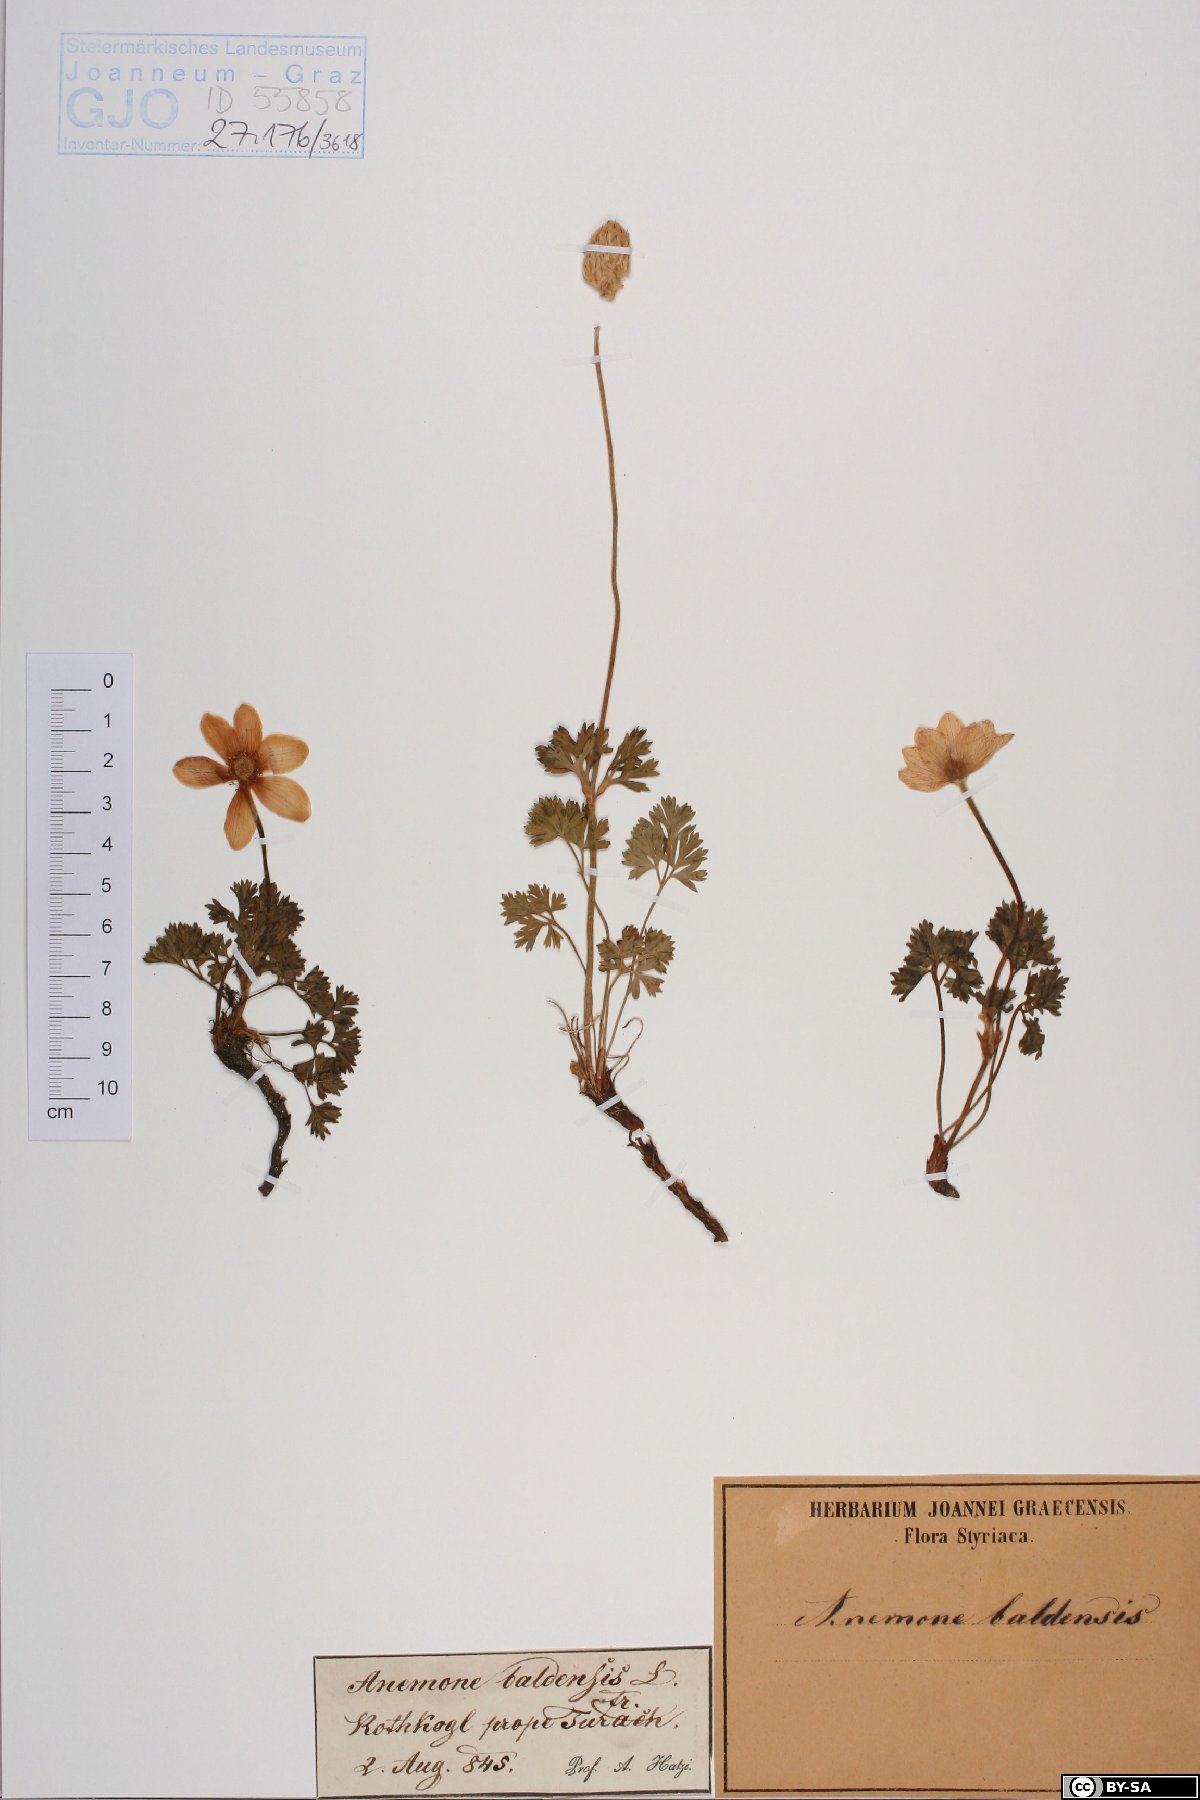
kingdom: Plantae
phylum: Tracheophyta
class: Magnoliopsida
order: Ranunculales
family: Ranunculaceae
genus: Anemone
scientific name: Anemone baldensis
